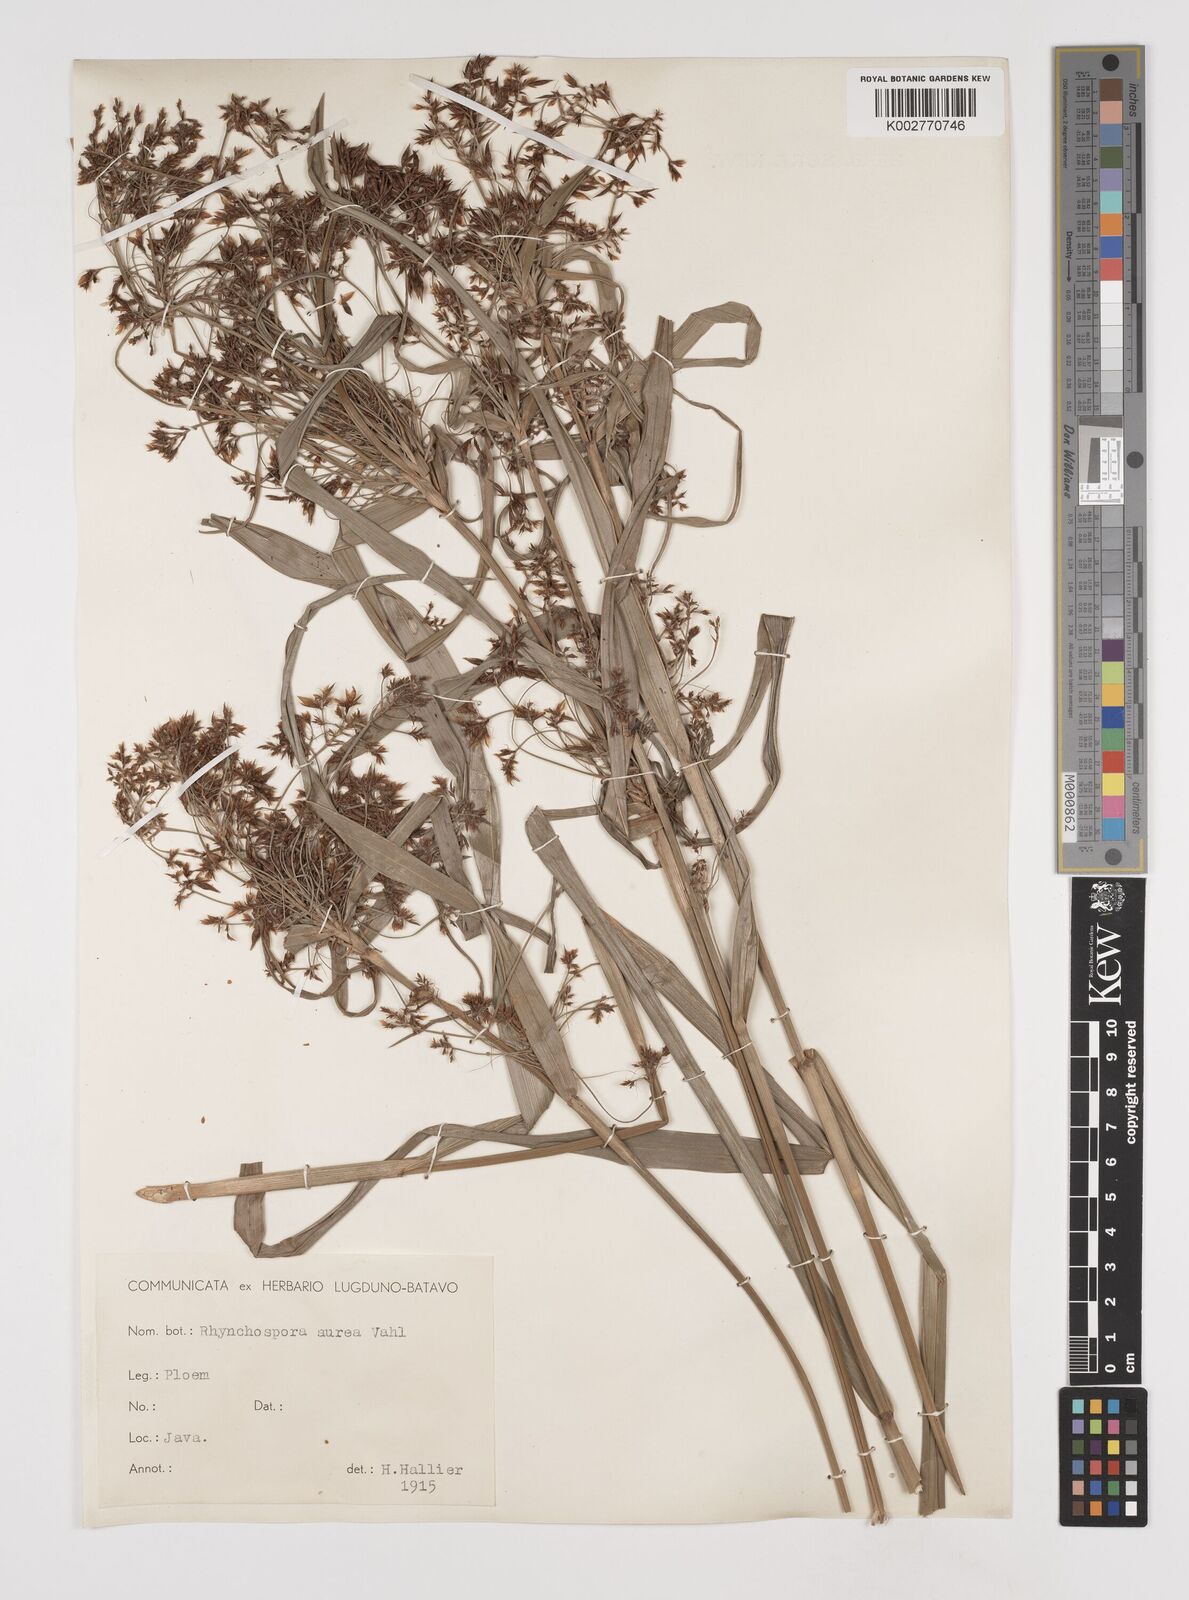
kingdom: Plantae
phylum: Tracheophyta
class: Liliopsida
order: Poales
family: Cyperaceae
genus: Rhynchospora
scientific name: Rhynchospora corymbosa
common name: Golden beak sedge
